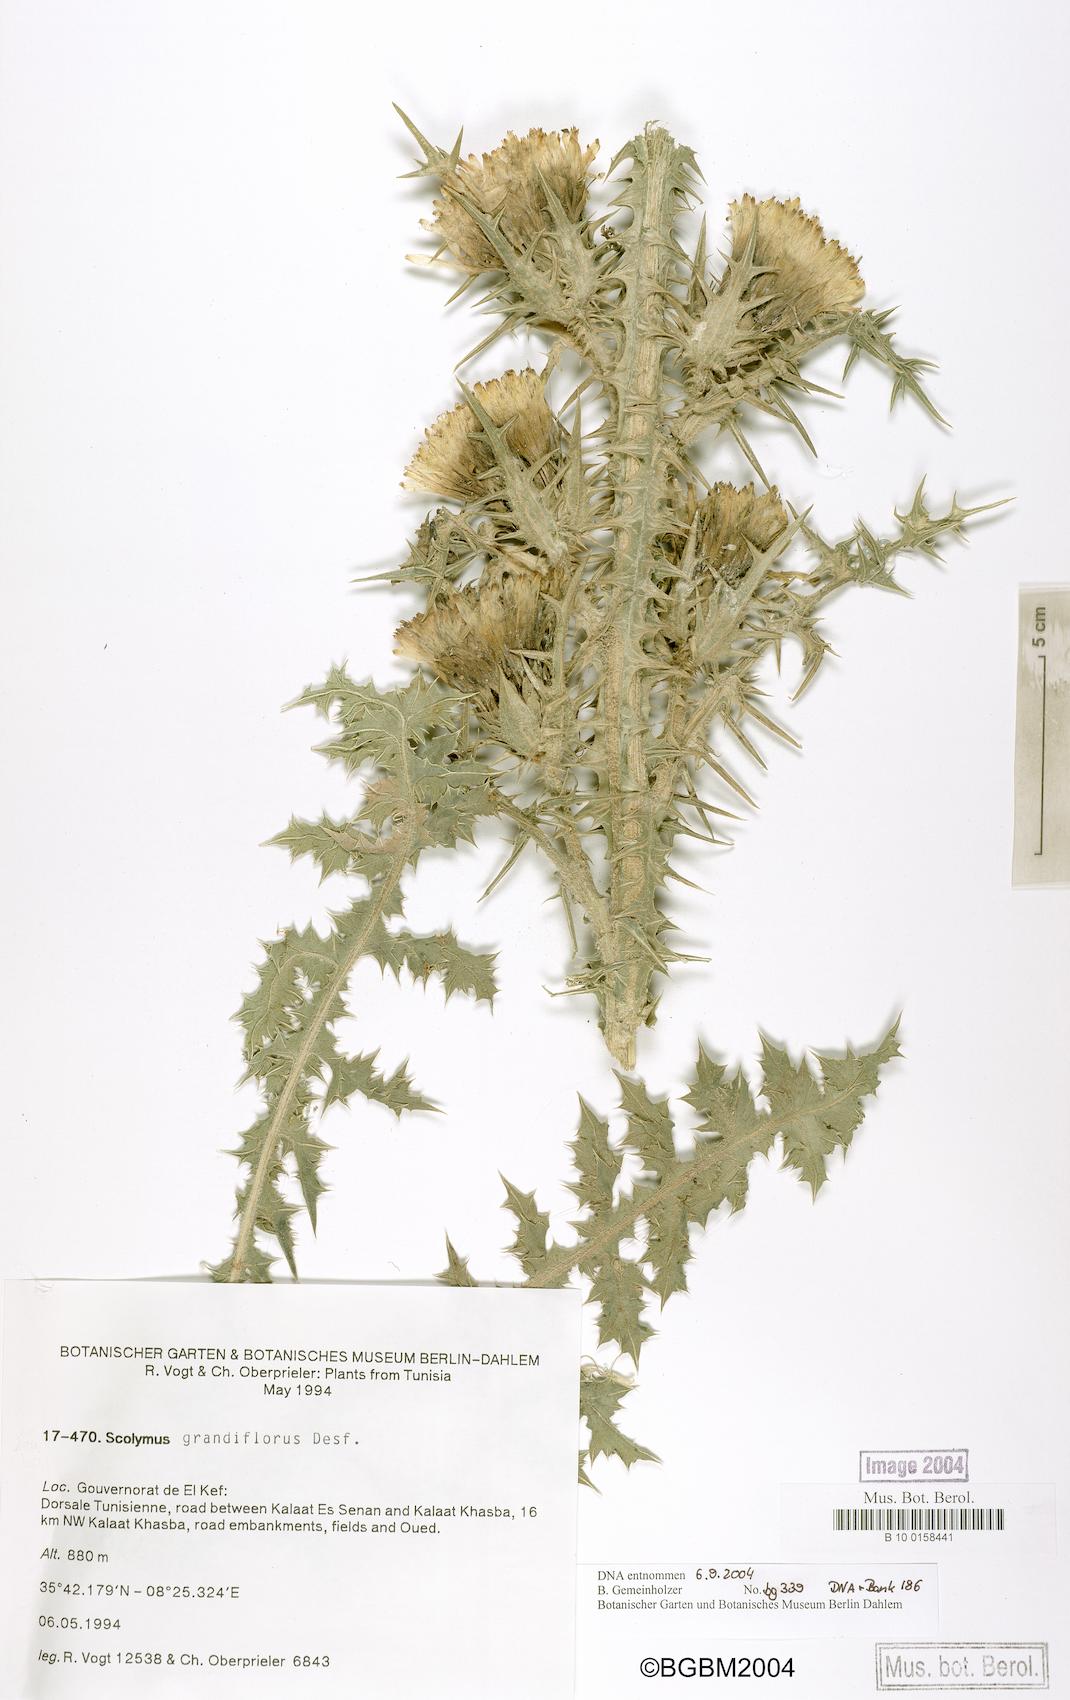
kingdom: Plantae
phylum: Tracheophyta
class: Magnoliopsida
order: Asterales
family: Asteraceae
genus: Scolymus
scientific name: Scolymus grandiflorus
